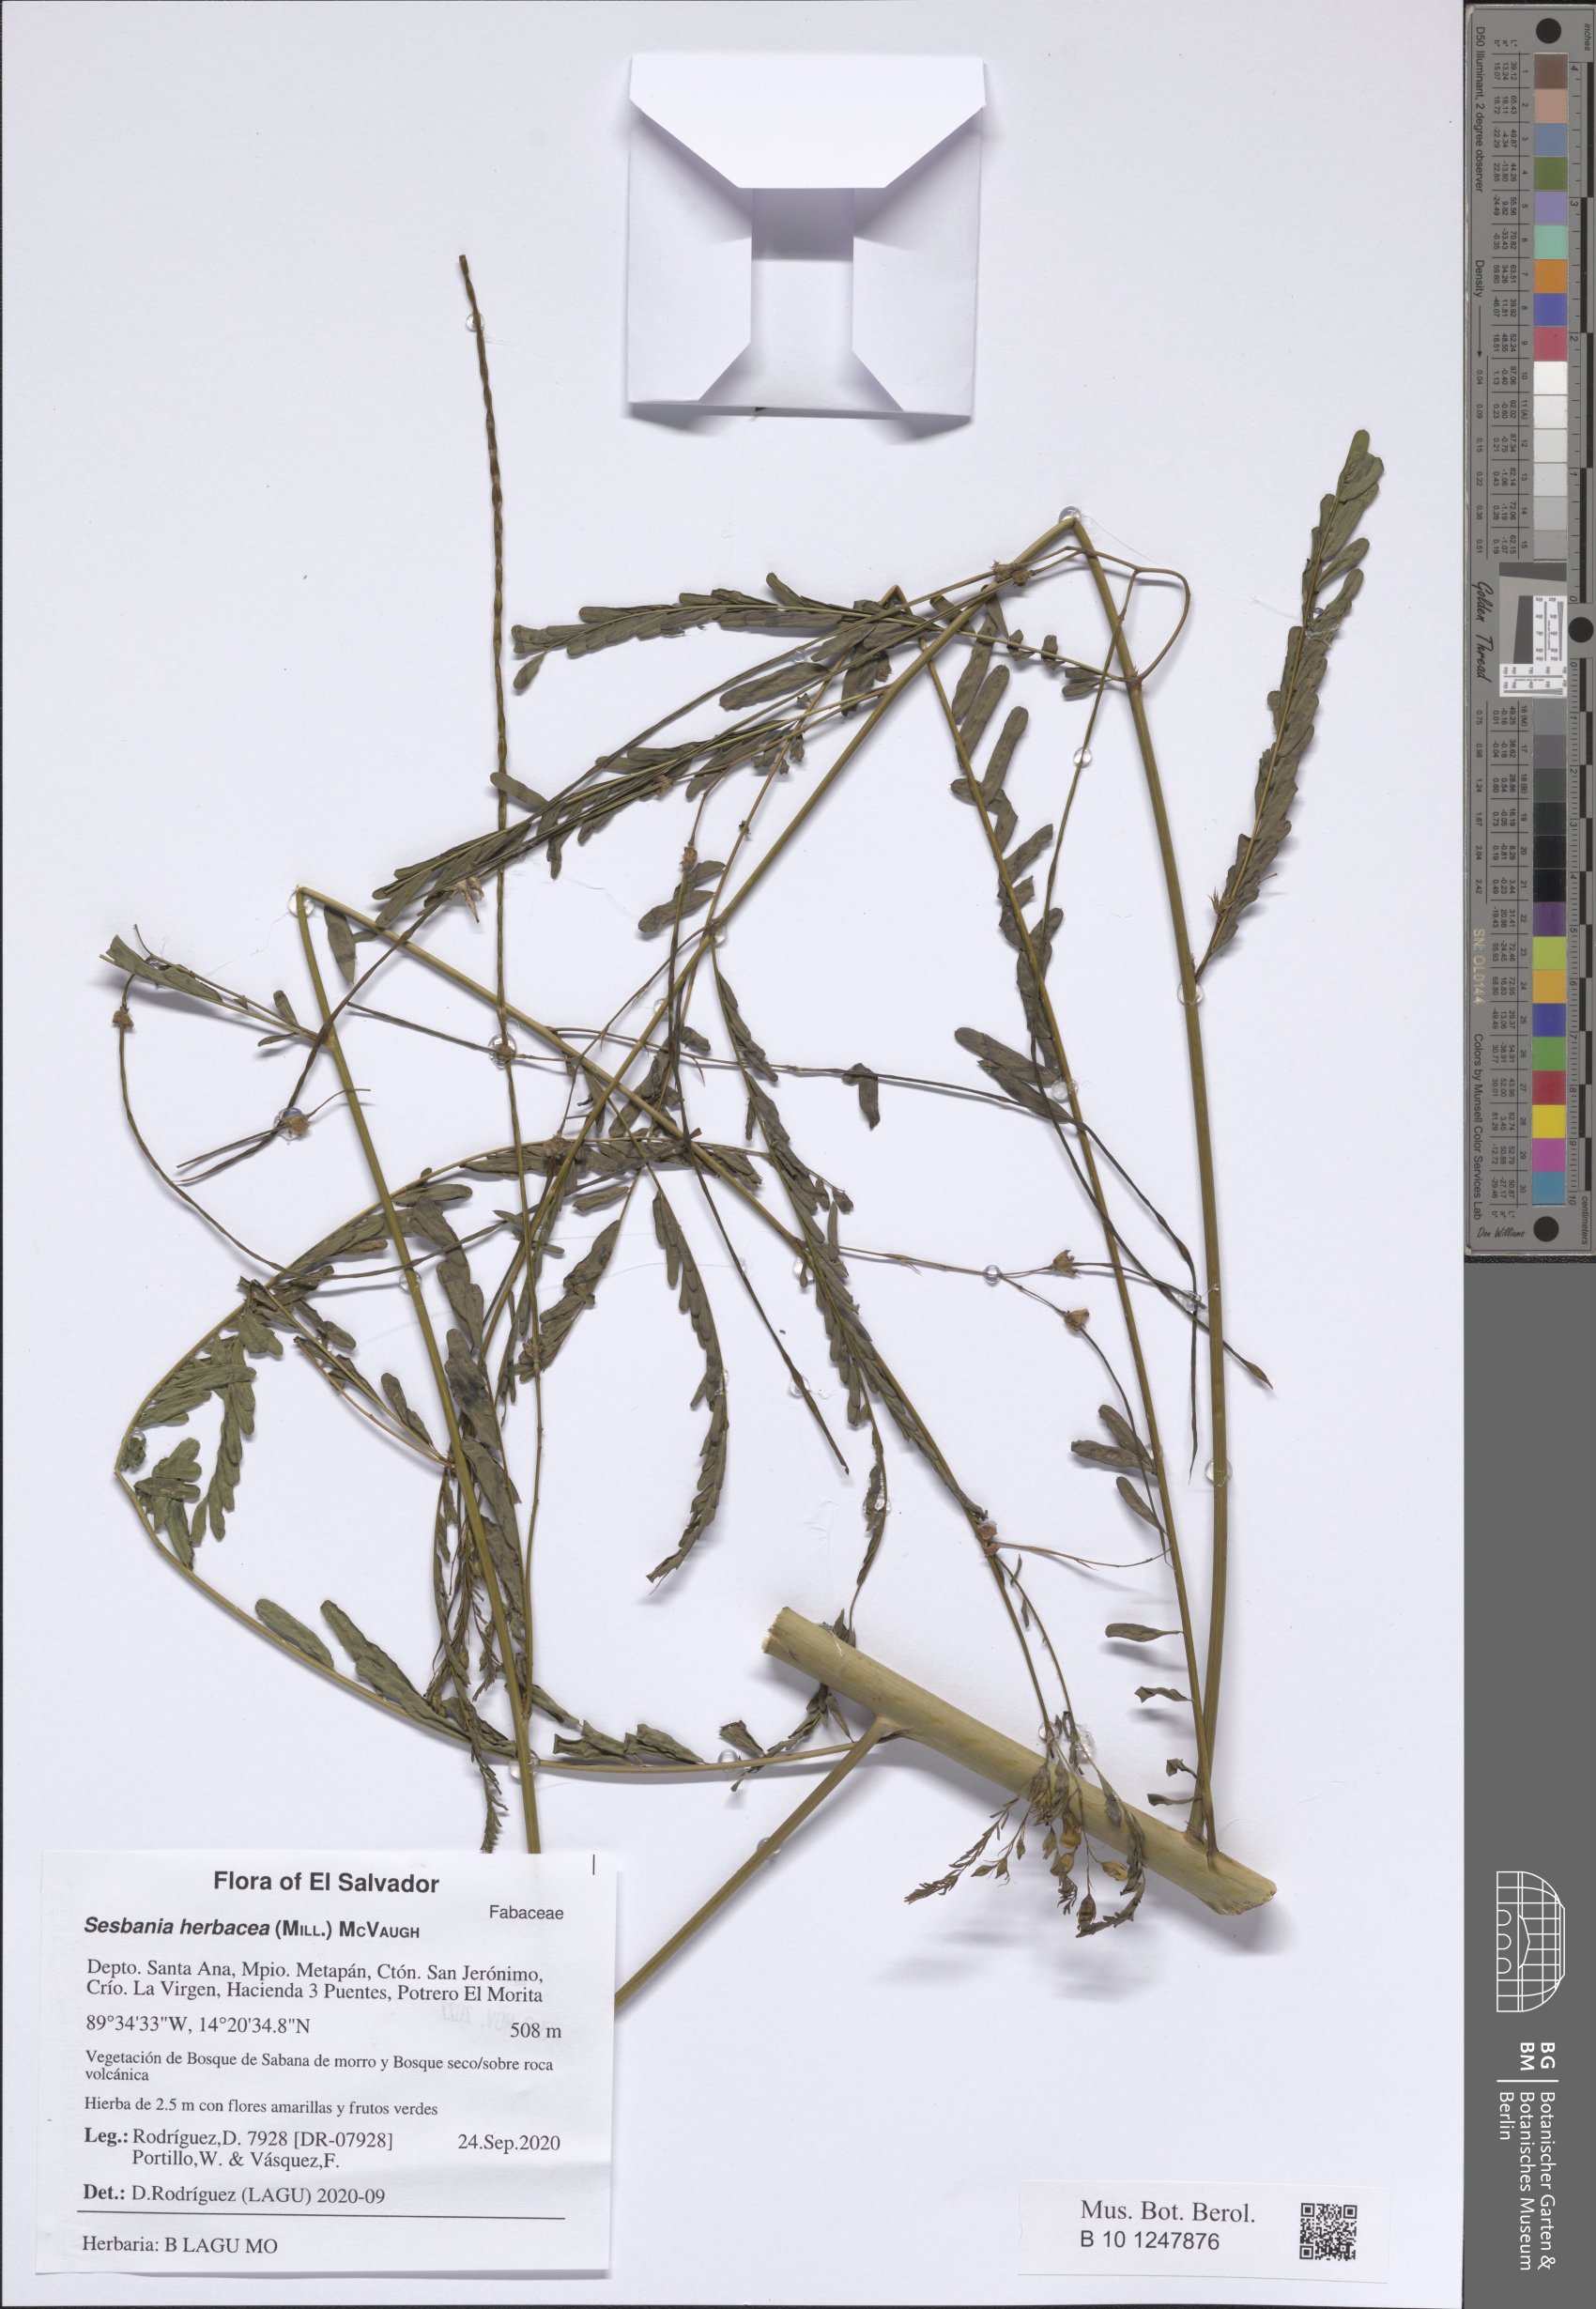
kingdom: Plantae
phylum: Tracheophyta
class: Magnoliopsida
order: Fabales
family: Fabaceae
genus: Sesbania
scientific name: Sesbania herbacea
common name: Bigpod sesbania
